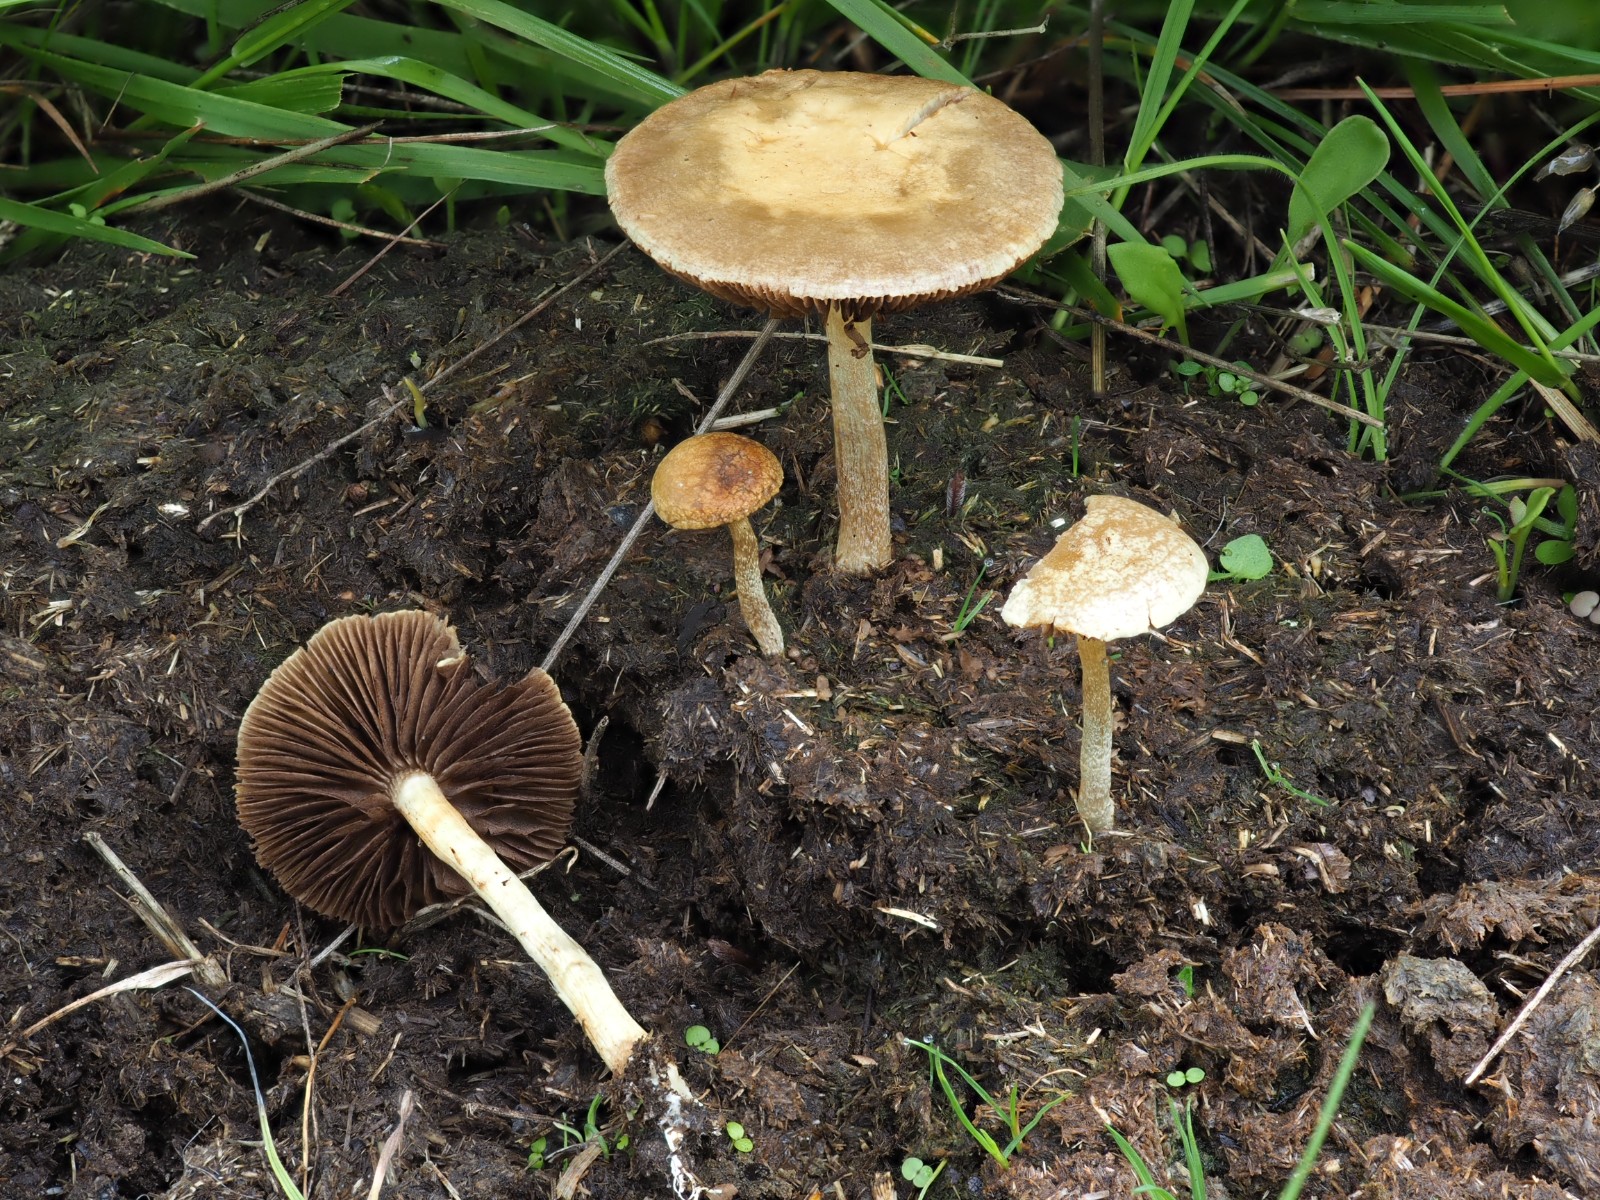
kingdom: Fungi
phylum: Basidiomycota
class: Agaricomycetes
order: Agaricales
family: Strophariaceae
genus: Agrocybe
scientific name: Agrocybe pediades
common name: almindelig agerhat
